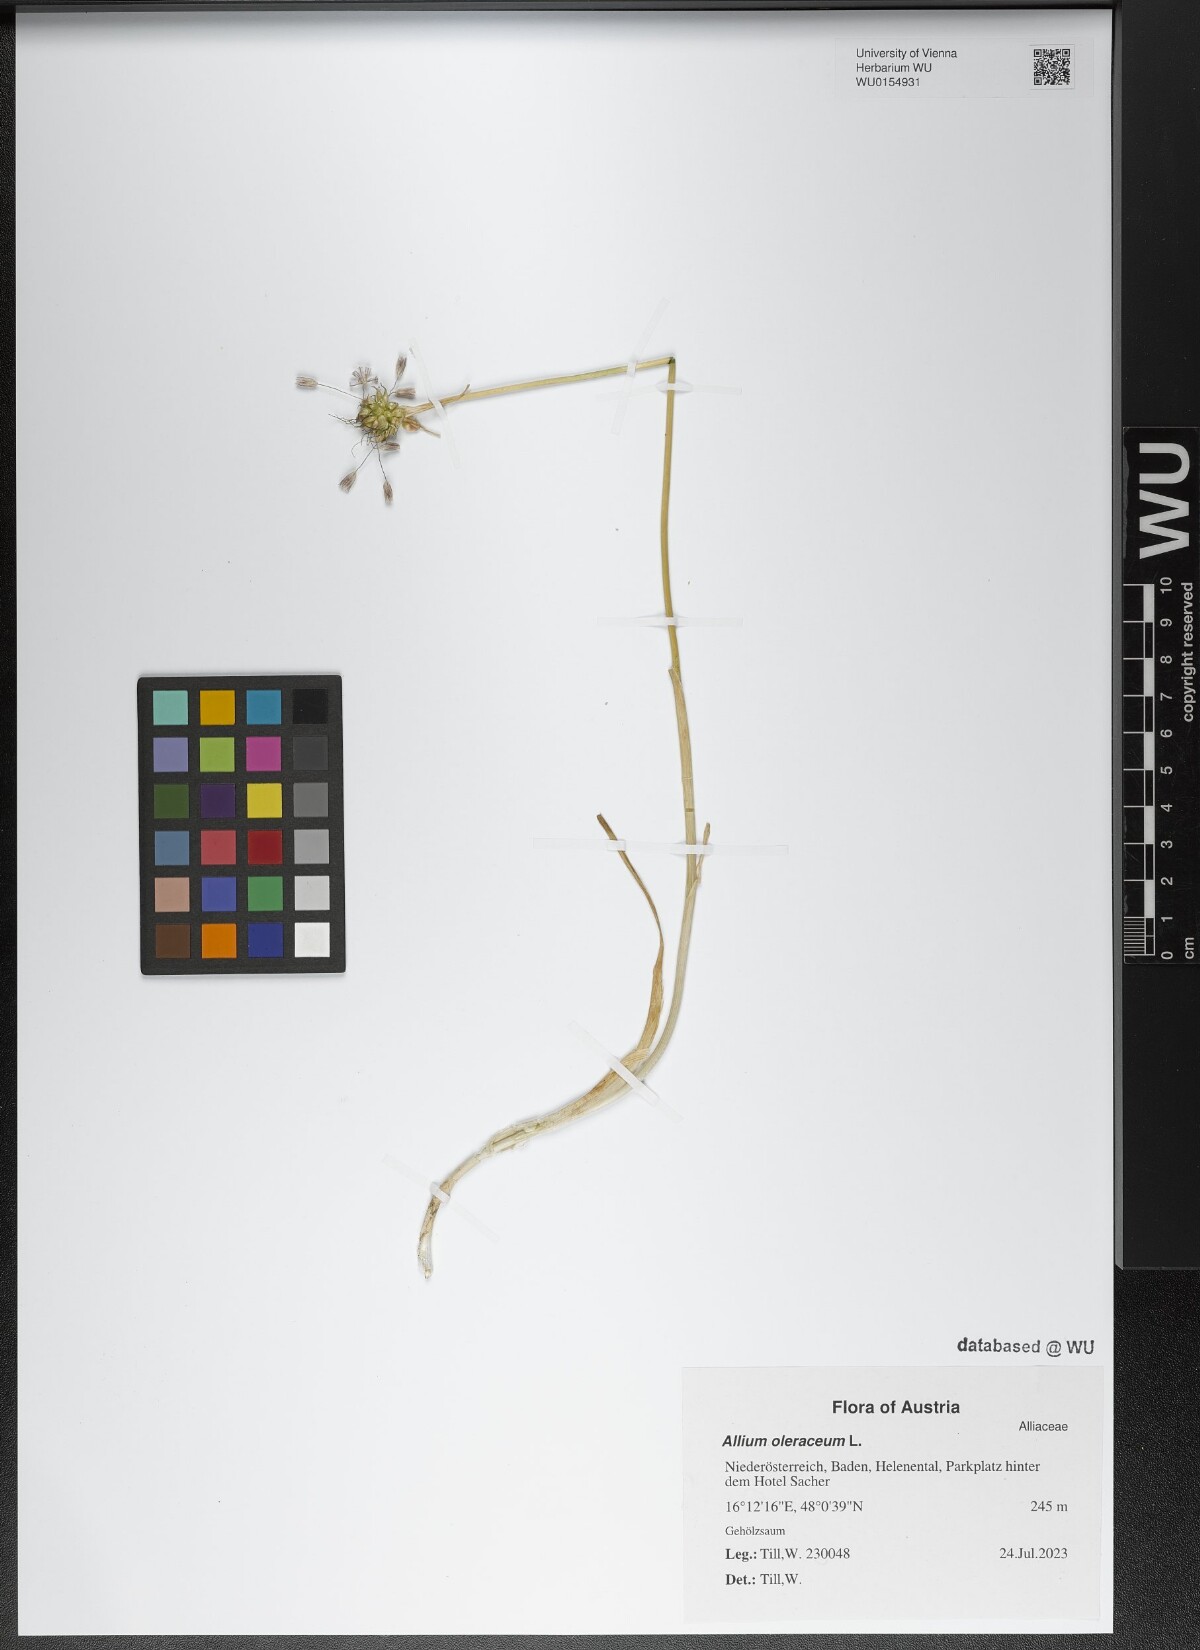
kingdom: Plantae
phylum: Tracheophyta
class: Liliopsida
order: Asparagales
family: Amaryllidaceae
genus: Allium
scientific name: Allium oleraceum
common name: Field garlic
